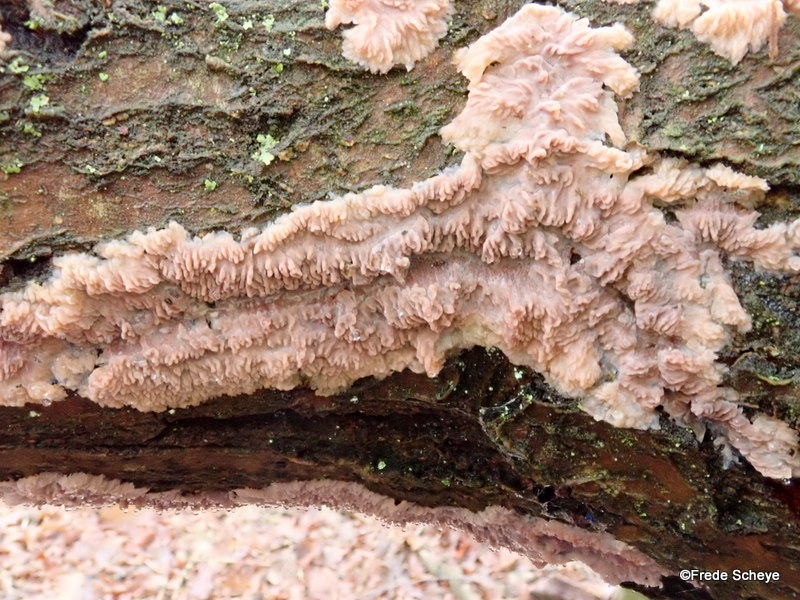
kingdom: Fungi
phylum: Basidiomycota
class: Agaricomycetes
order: Polyporales
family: Meruliaceae
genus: Phlebia
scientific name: Phlebia radiata
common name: stråle-åresvamp
